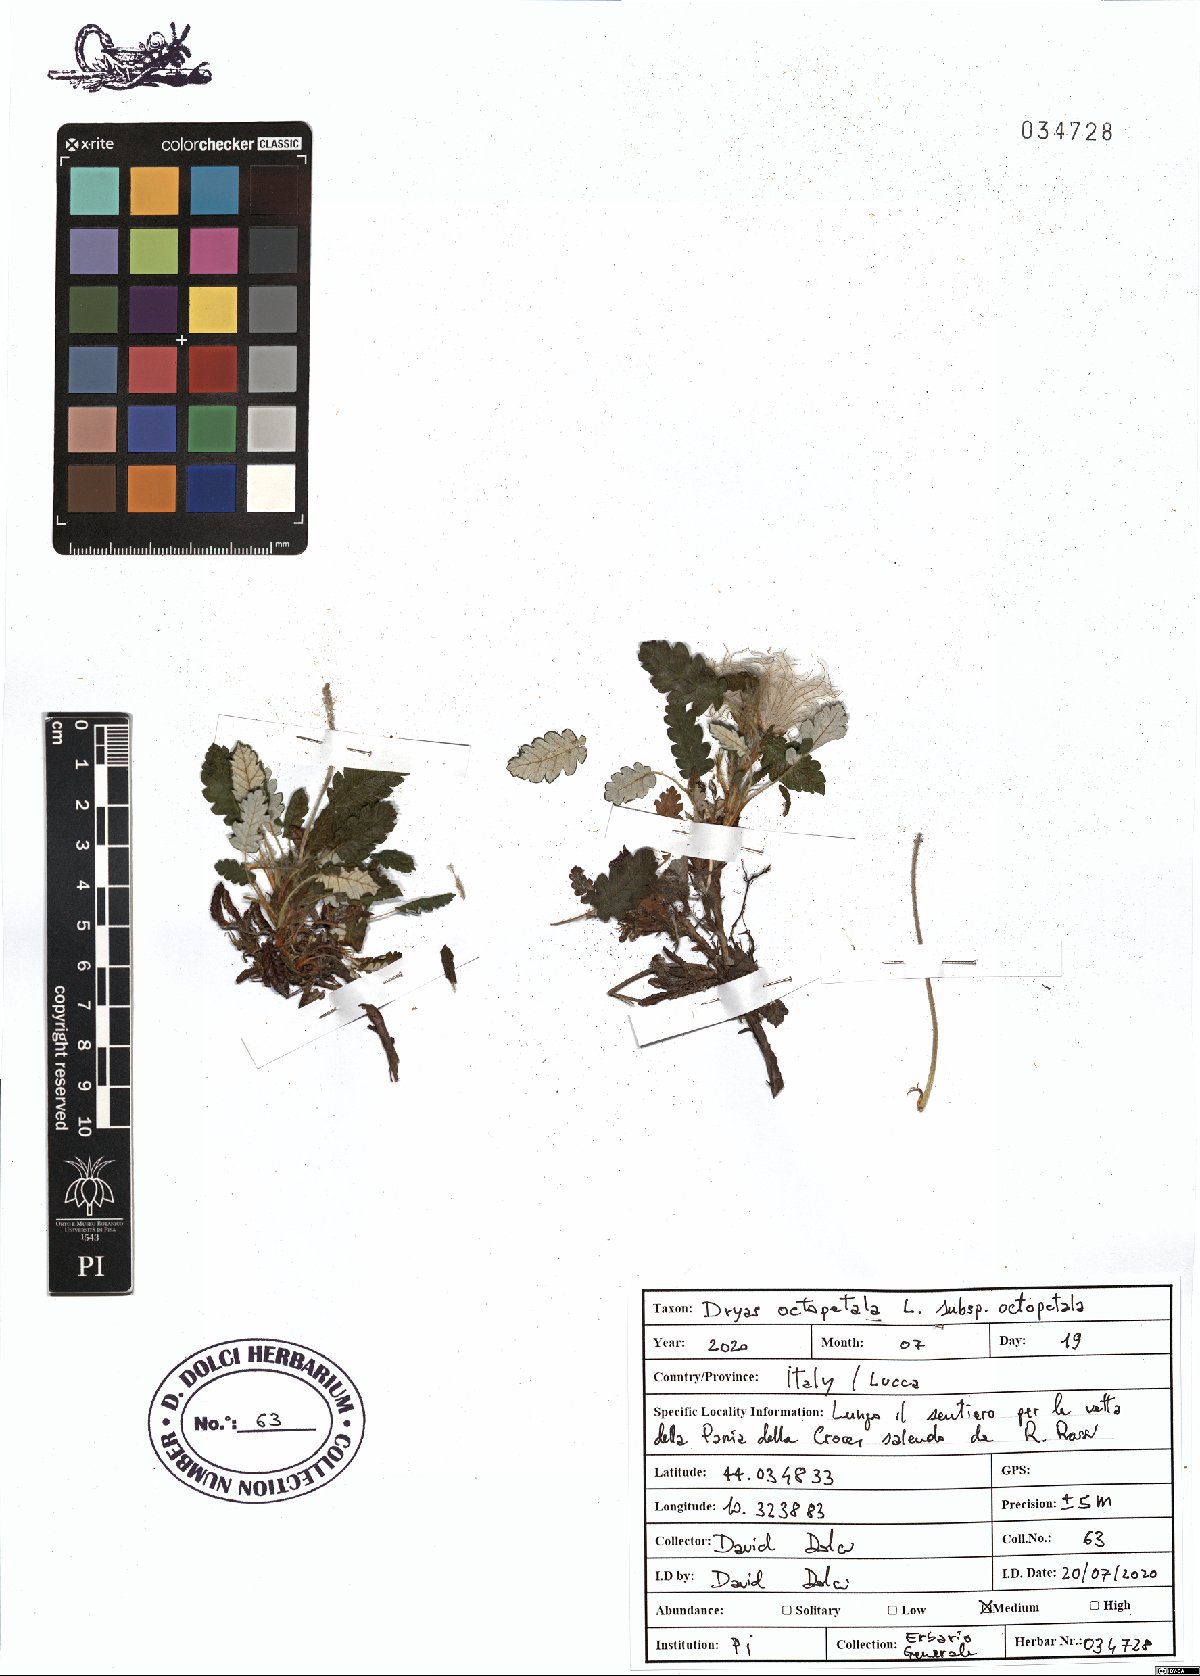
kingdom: Plantae
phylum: Tracheophyta
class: Magnoliopsida
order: Rosales
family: Rosaceae
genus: Dryas
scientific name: Dryas octopetala
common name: Eight-petal mountain-avens
